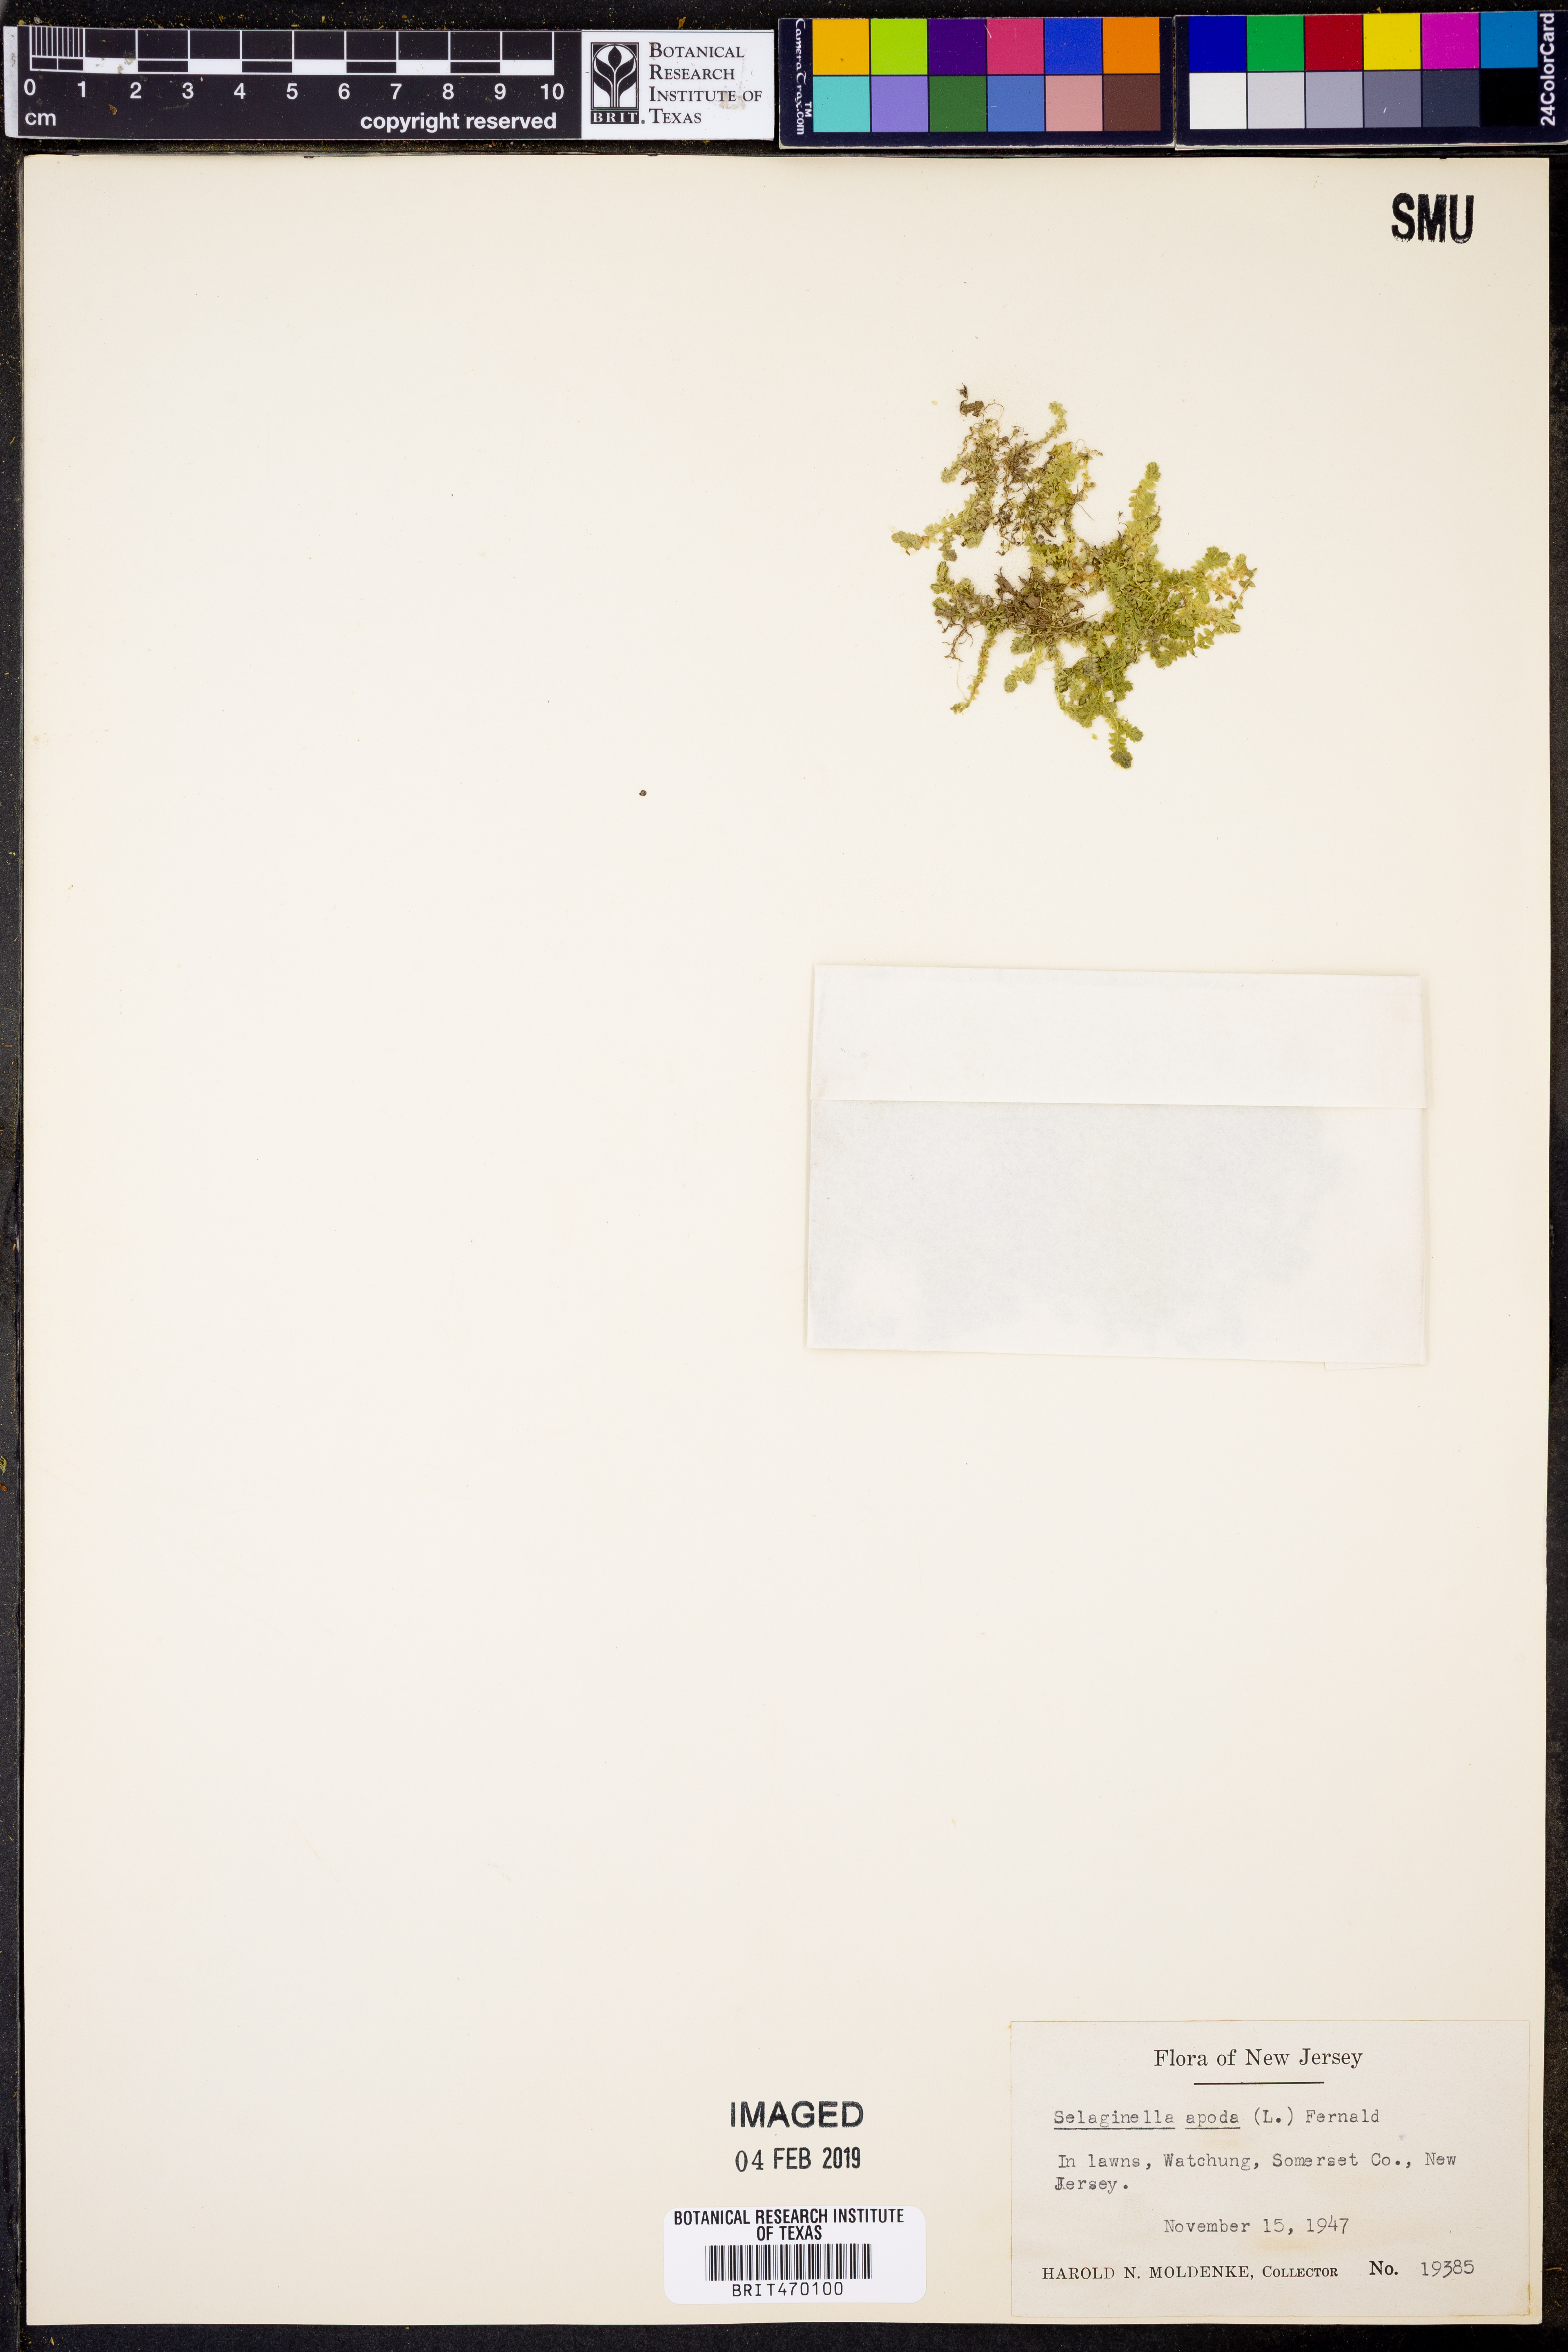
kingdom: Plantae
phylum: Tracheophyta
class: Lycopodiopsida
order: Selaginellales
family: Selaginellaceae
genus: Selaginella
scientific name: Selaginella apoda
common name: Creeping spikemoss
